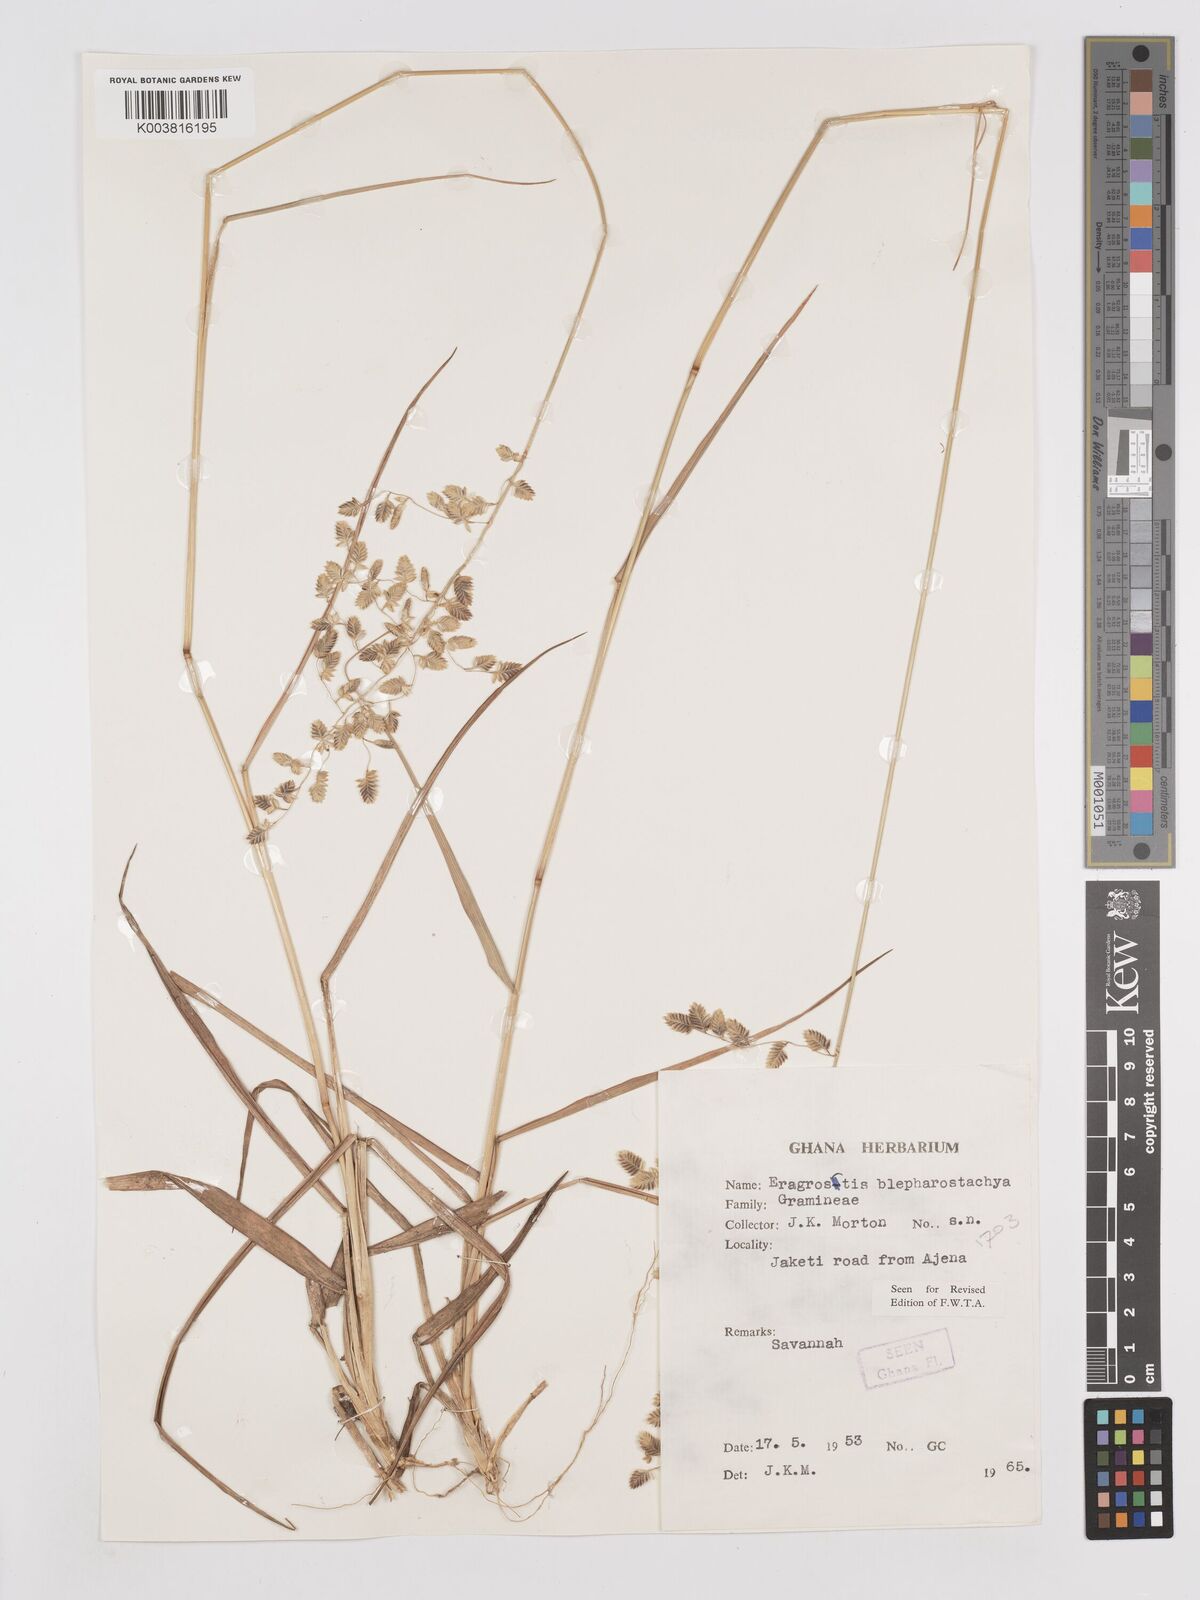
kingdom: Plantae
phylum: Tracheophyta
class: Liliopsida
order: Poales
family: Poaceae
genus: Eragrostis
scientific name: Eragrostis blepharostachya
